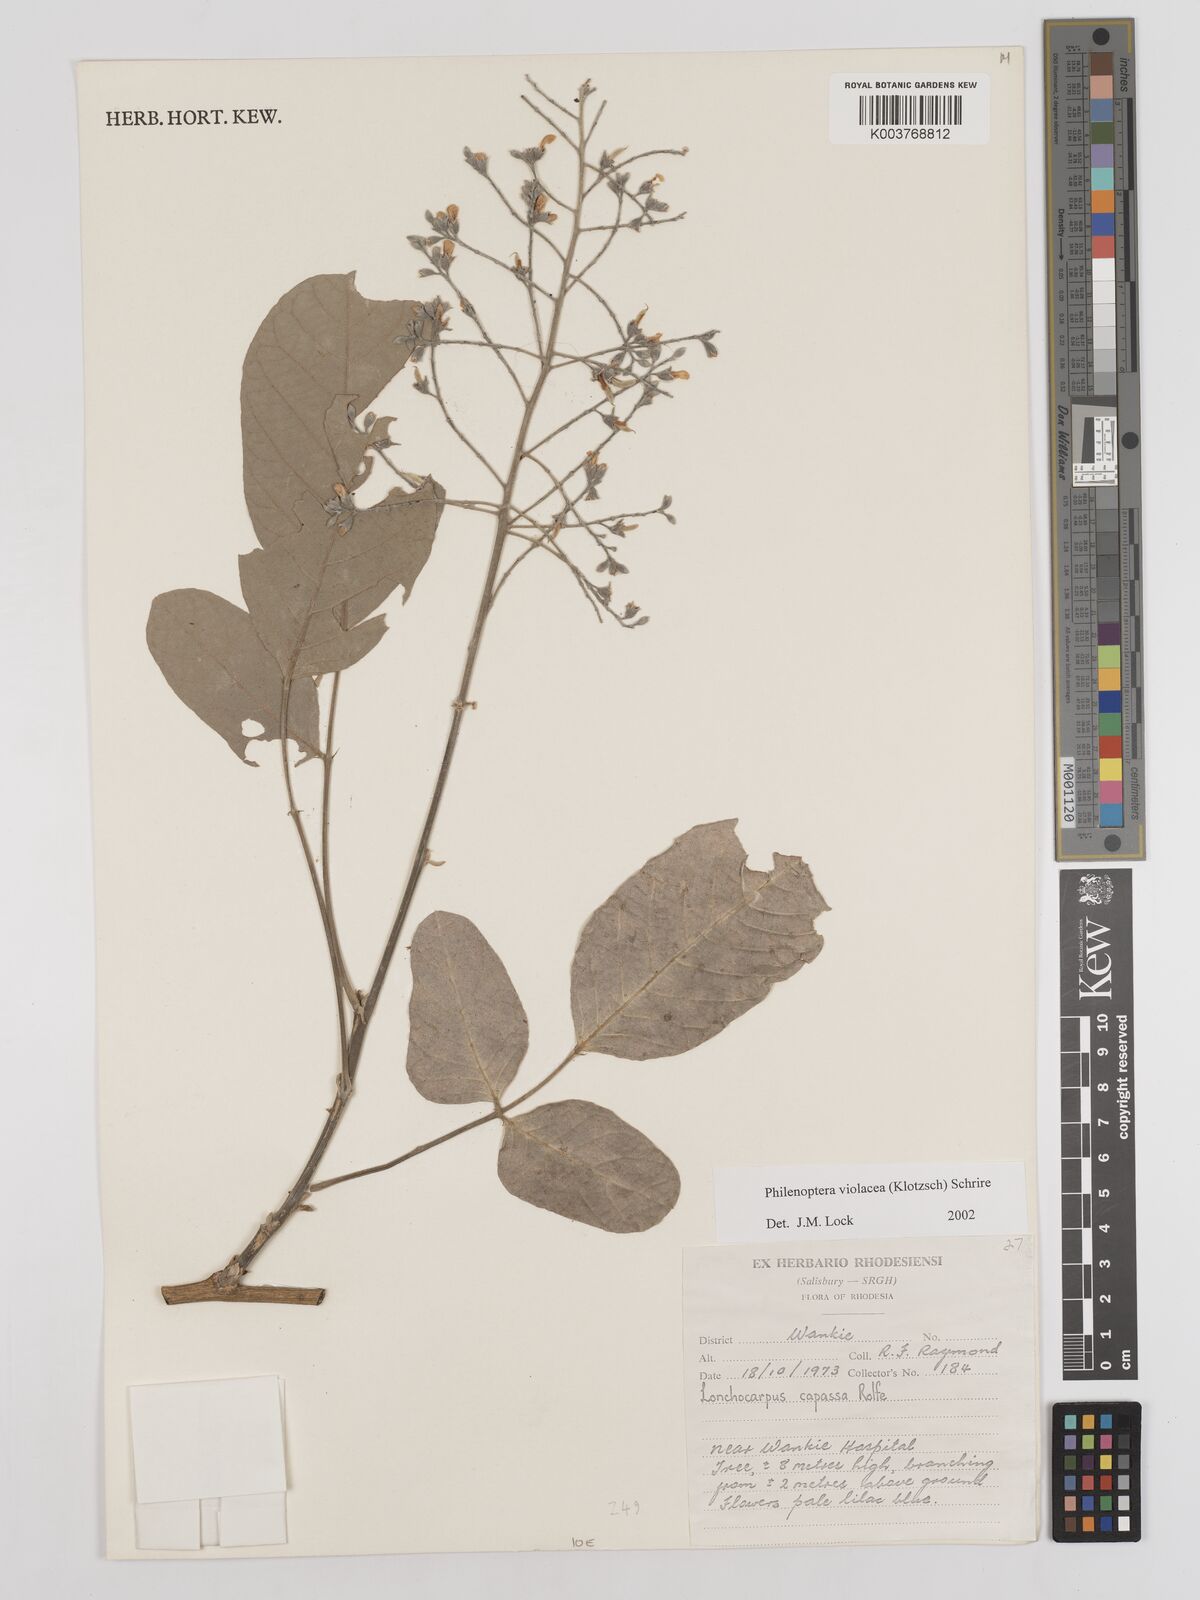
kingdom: Plantae
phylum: Tracheophyta
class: Magnoliopsida
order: Fabales
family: Fabaceae
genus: Philenoptera
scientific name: Philenoptera violacea
